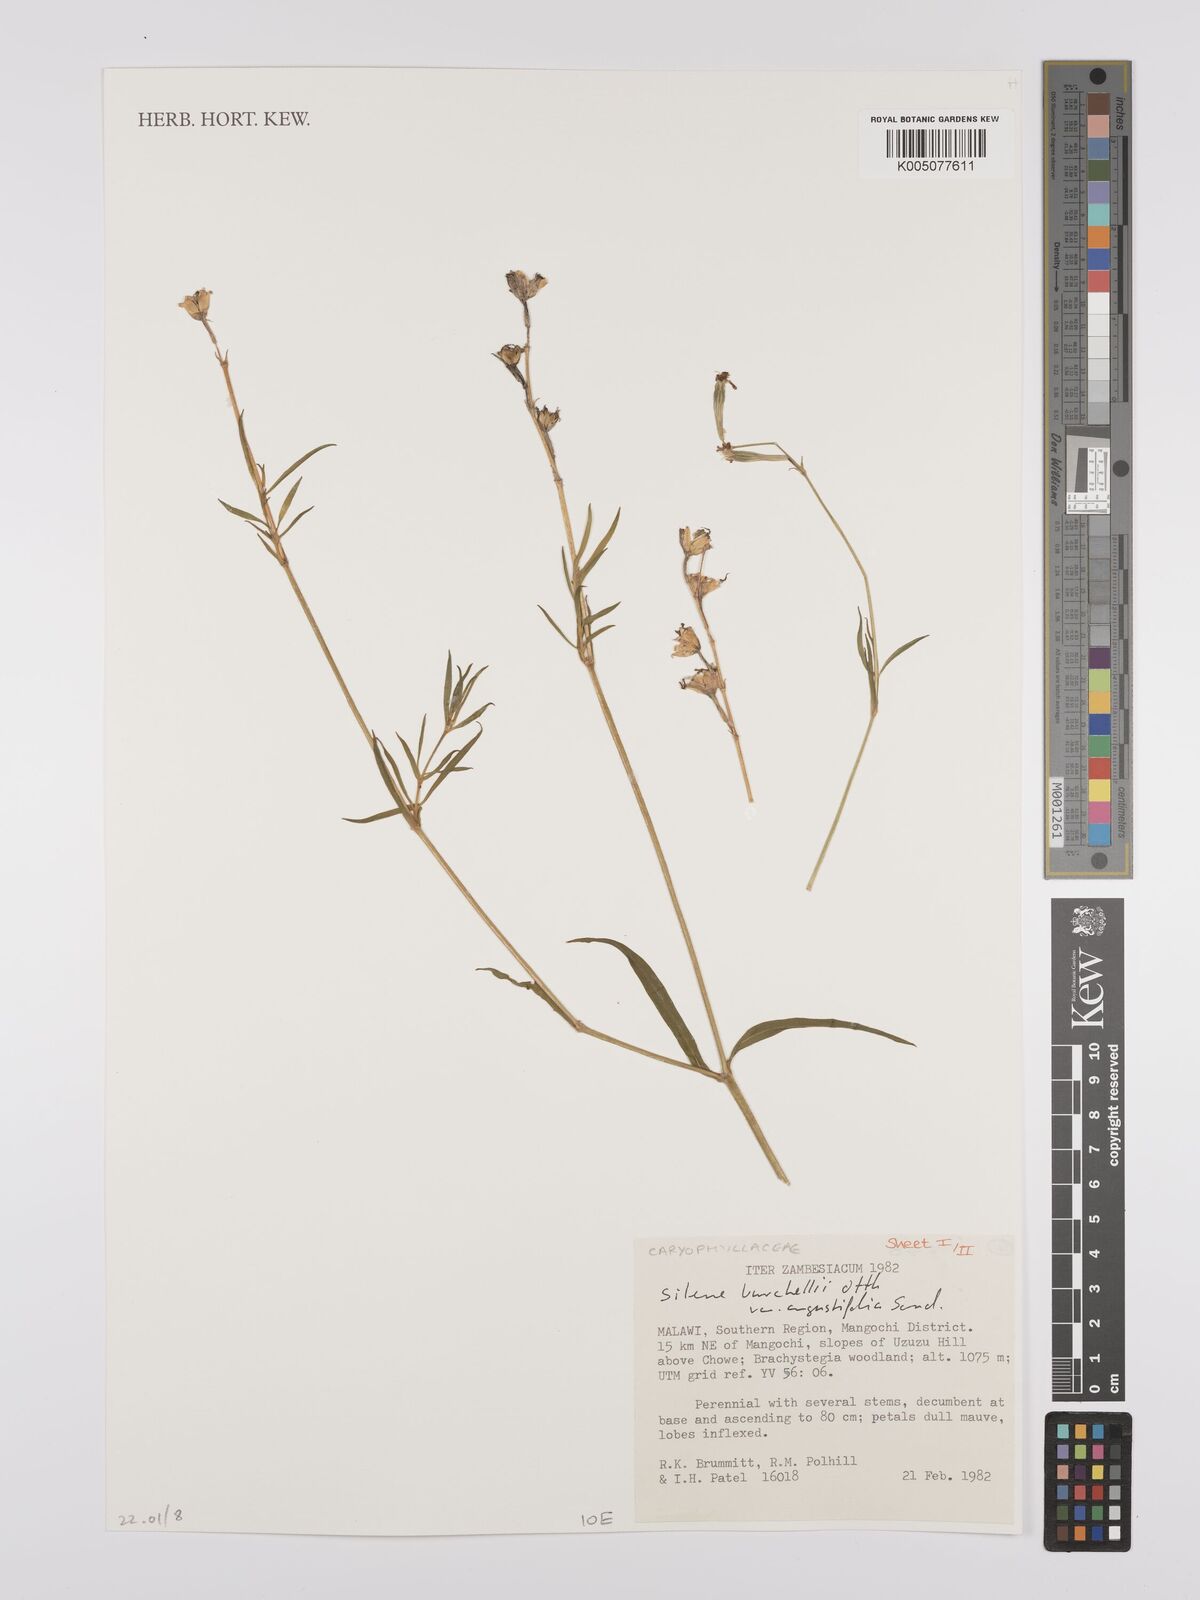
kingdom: Plantae
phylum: Tracheophyta
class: Magnoliopsida
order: Caryophyllales
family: Caryophyllaceae
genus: Silene
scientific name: Silene burchellii
